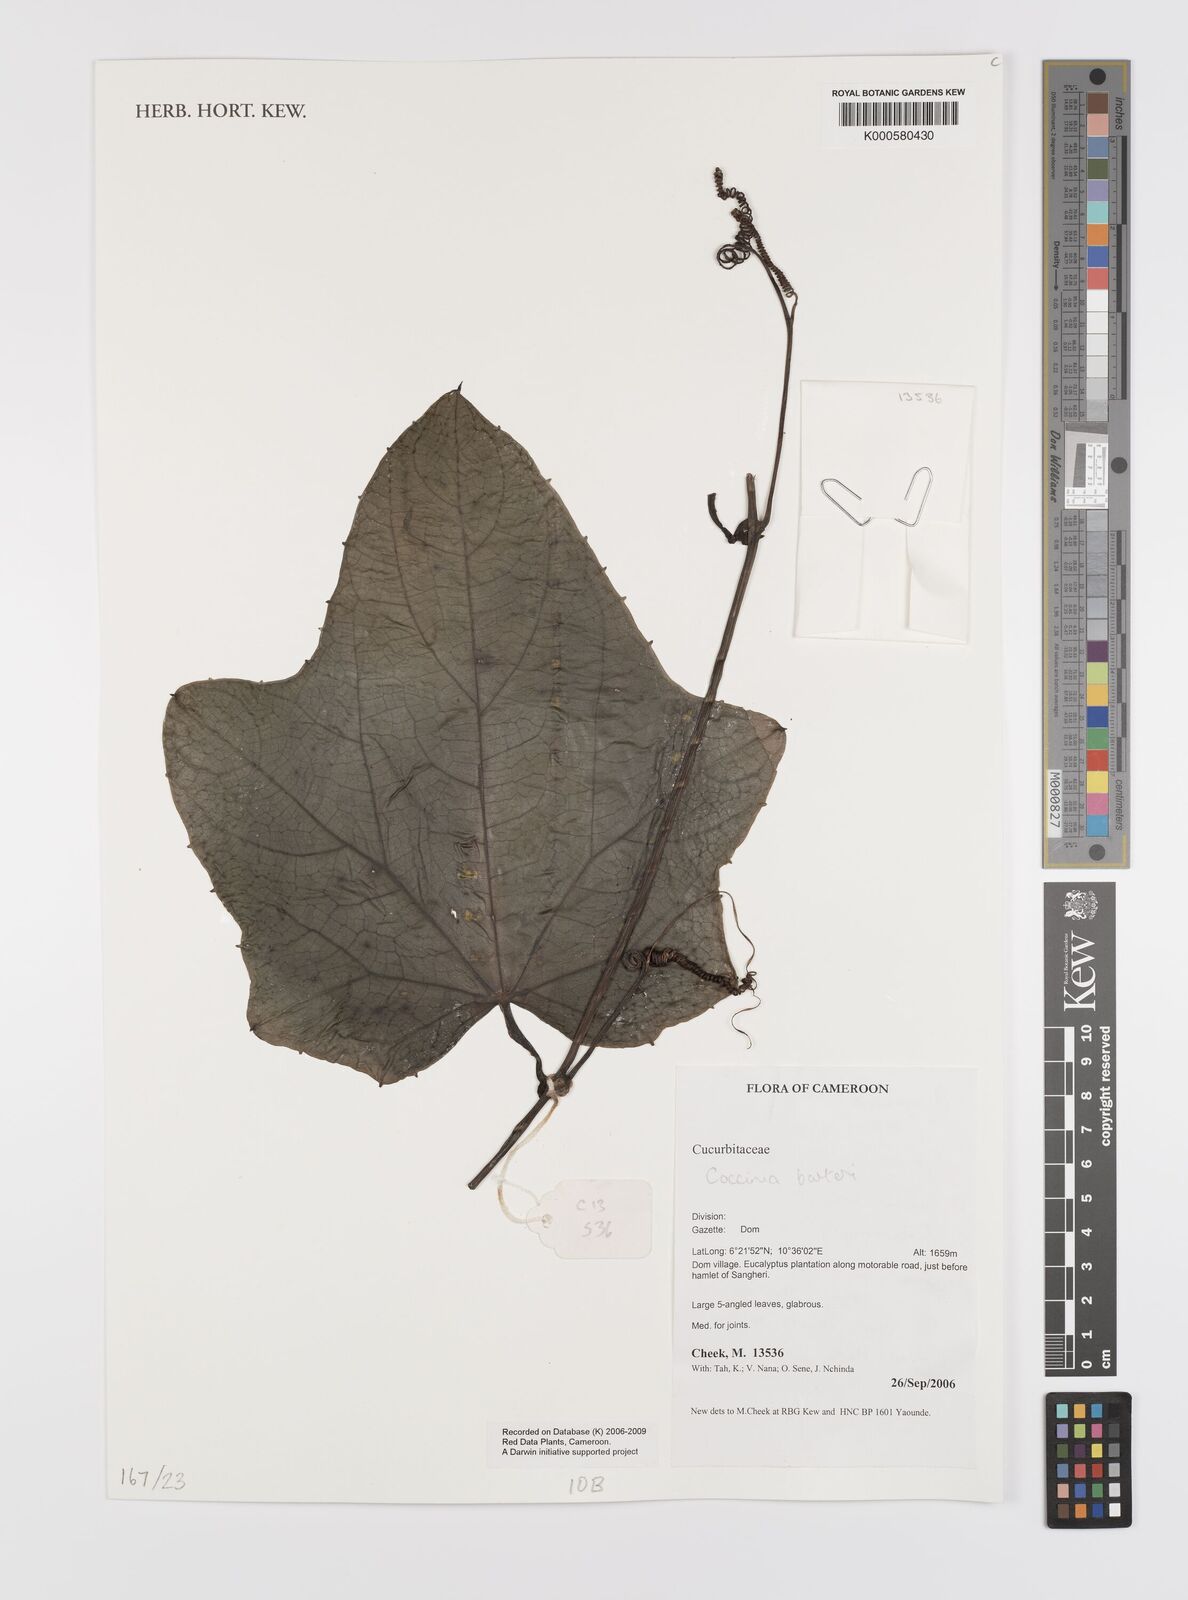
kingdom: Plantae
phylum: Tracheophyta
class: Magnoliopsida
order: Cucurbitales
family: Cucurbitaceae
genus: Coccinia
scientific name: Coccinia barteri
